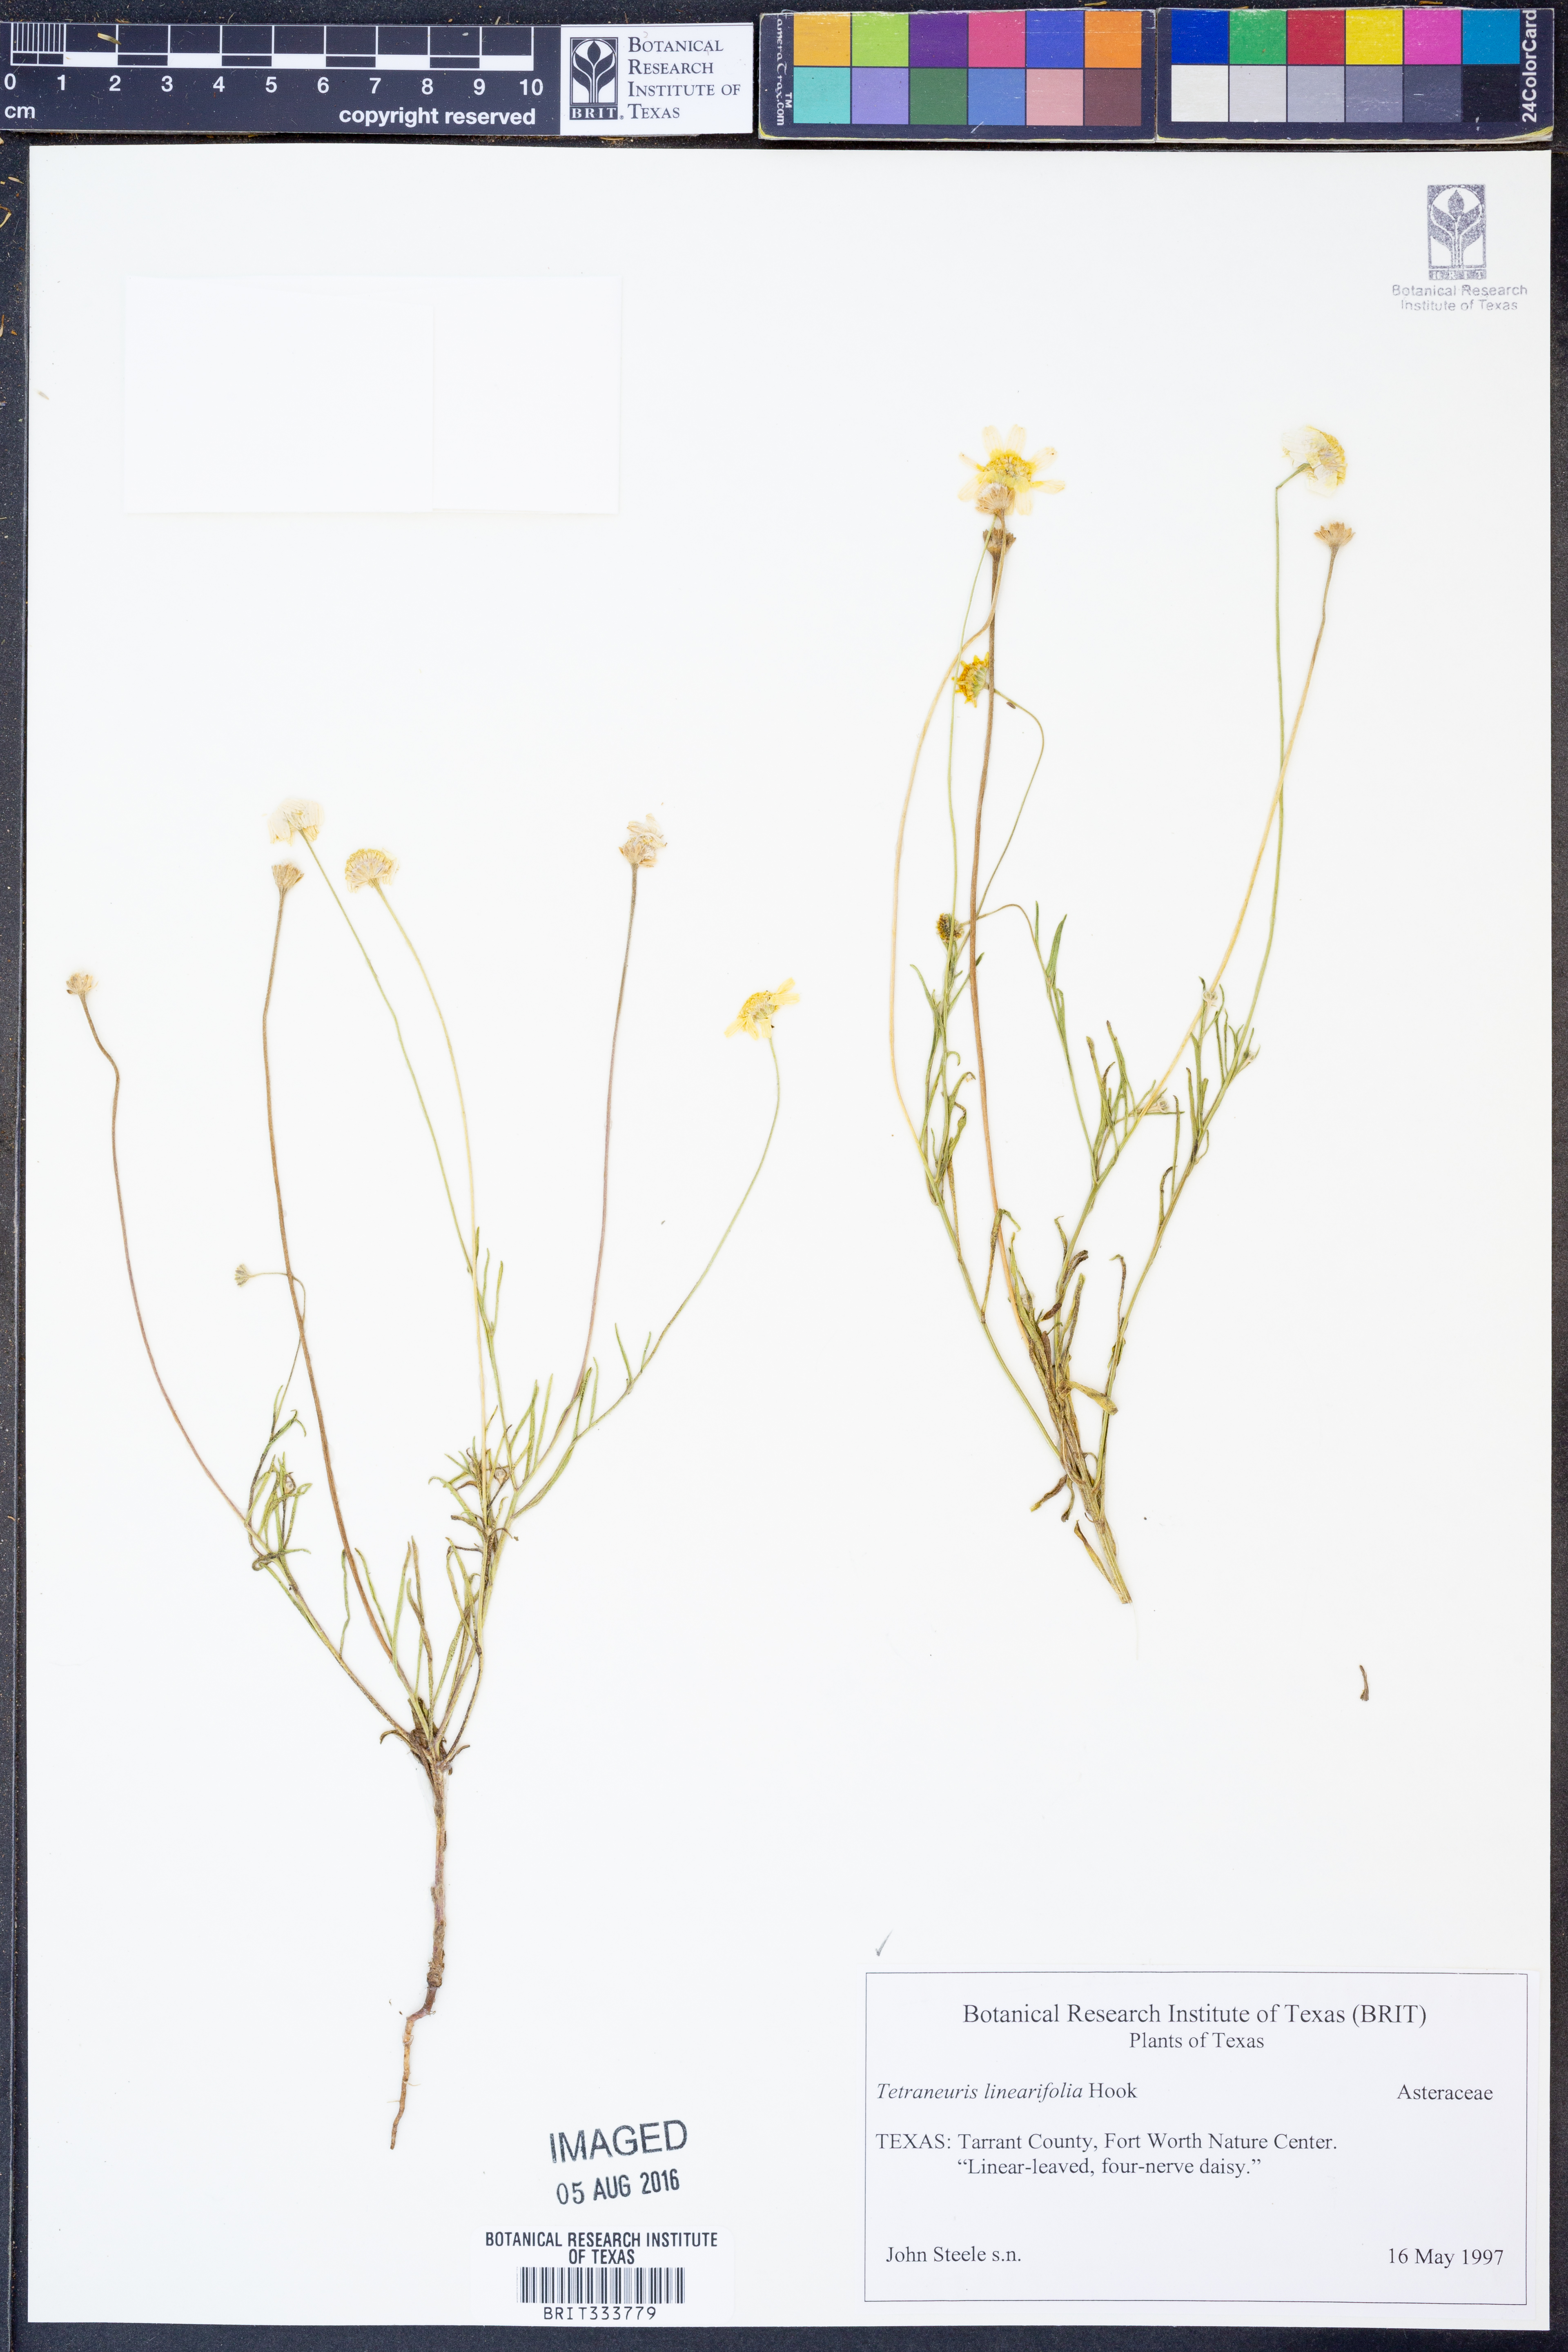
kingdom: Plantae
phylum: Tracheophyta
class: Magnoliopsida
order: Asterales
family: Asteraceae
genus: Tetraneuris
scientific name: Tetraneuris linearifolia
